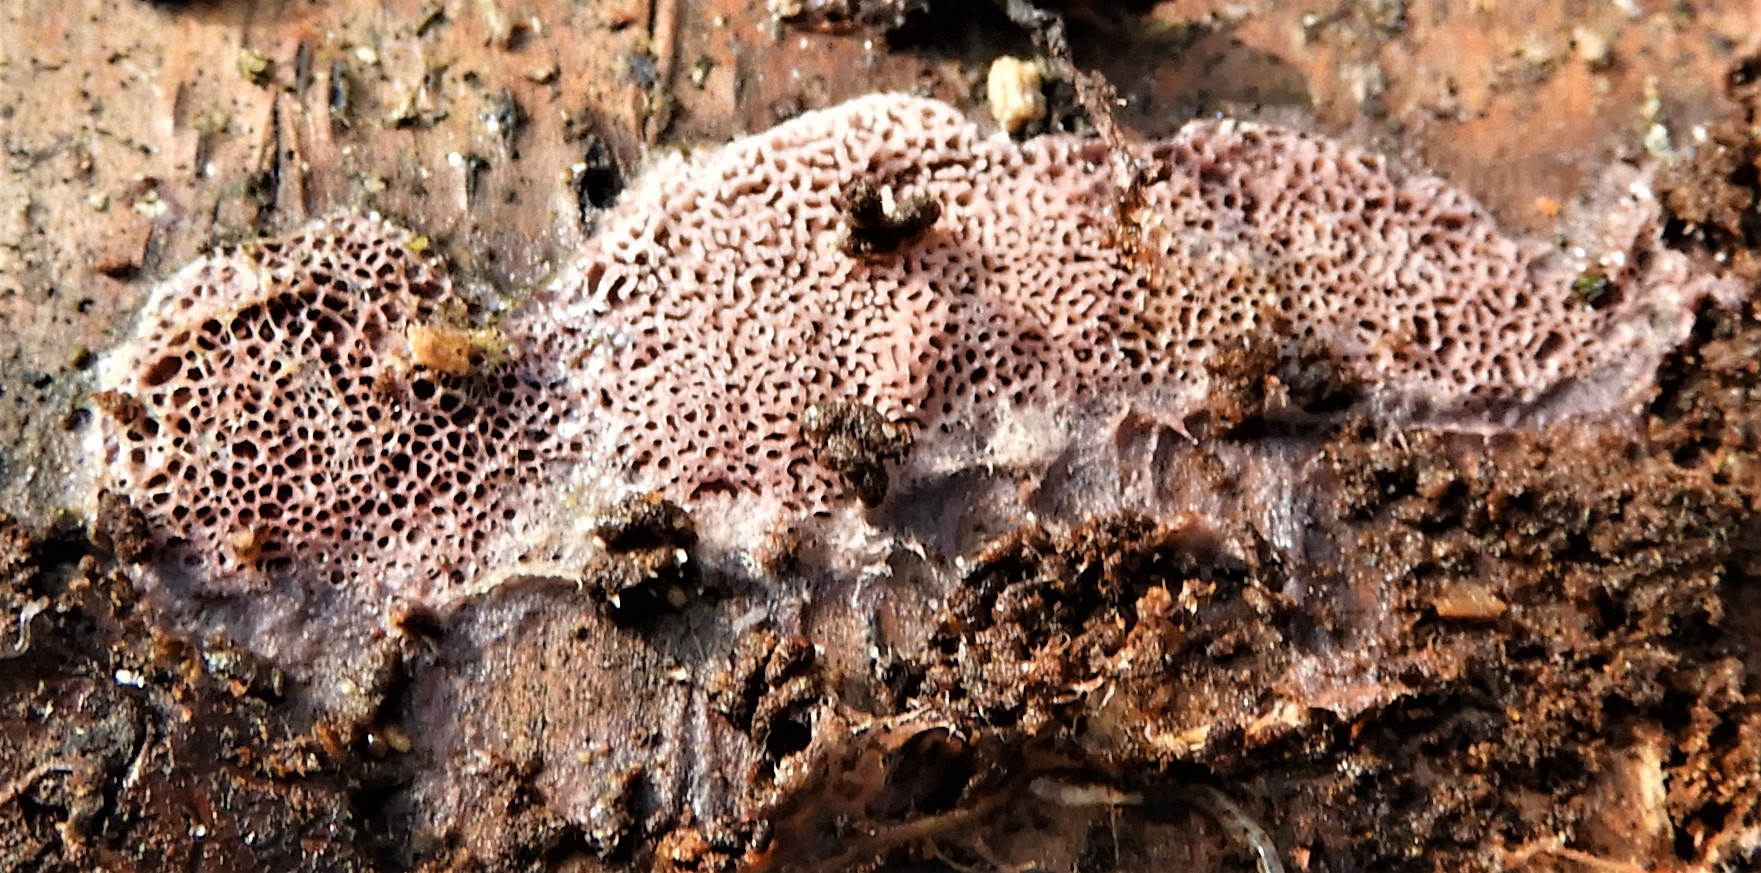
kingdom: Fungi
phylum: Basidiomycota
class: Agaricomycetes
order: Polyporales
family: Irpicaceae
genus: Ceriporia
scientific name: Ceriporia
